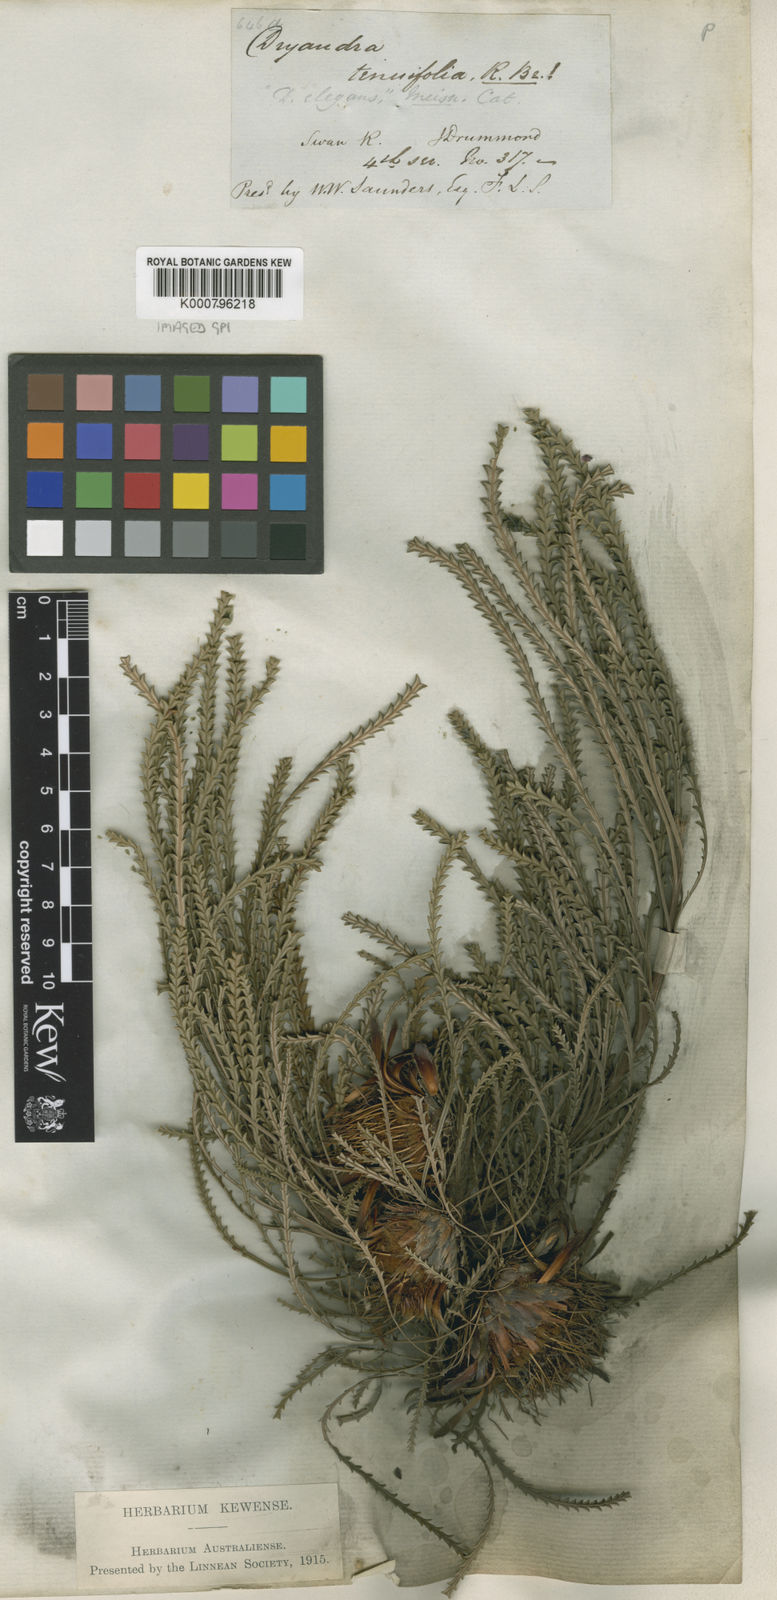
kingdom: Plantae
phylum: Tracheophyta
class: Magnoliopsida
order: Proteales
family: Proteaceae
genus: Banksia
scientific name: Banksia tenuis
